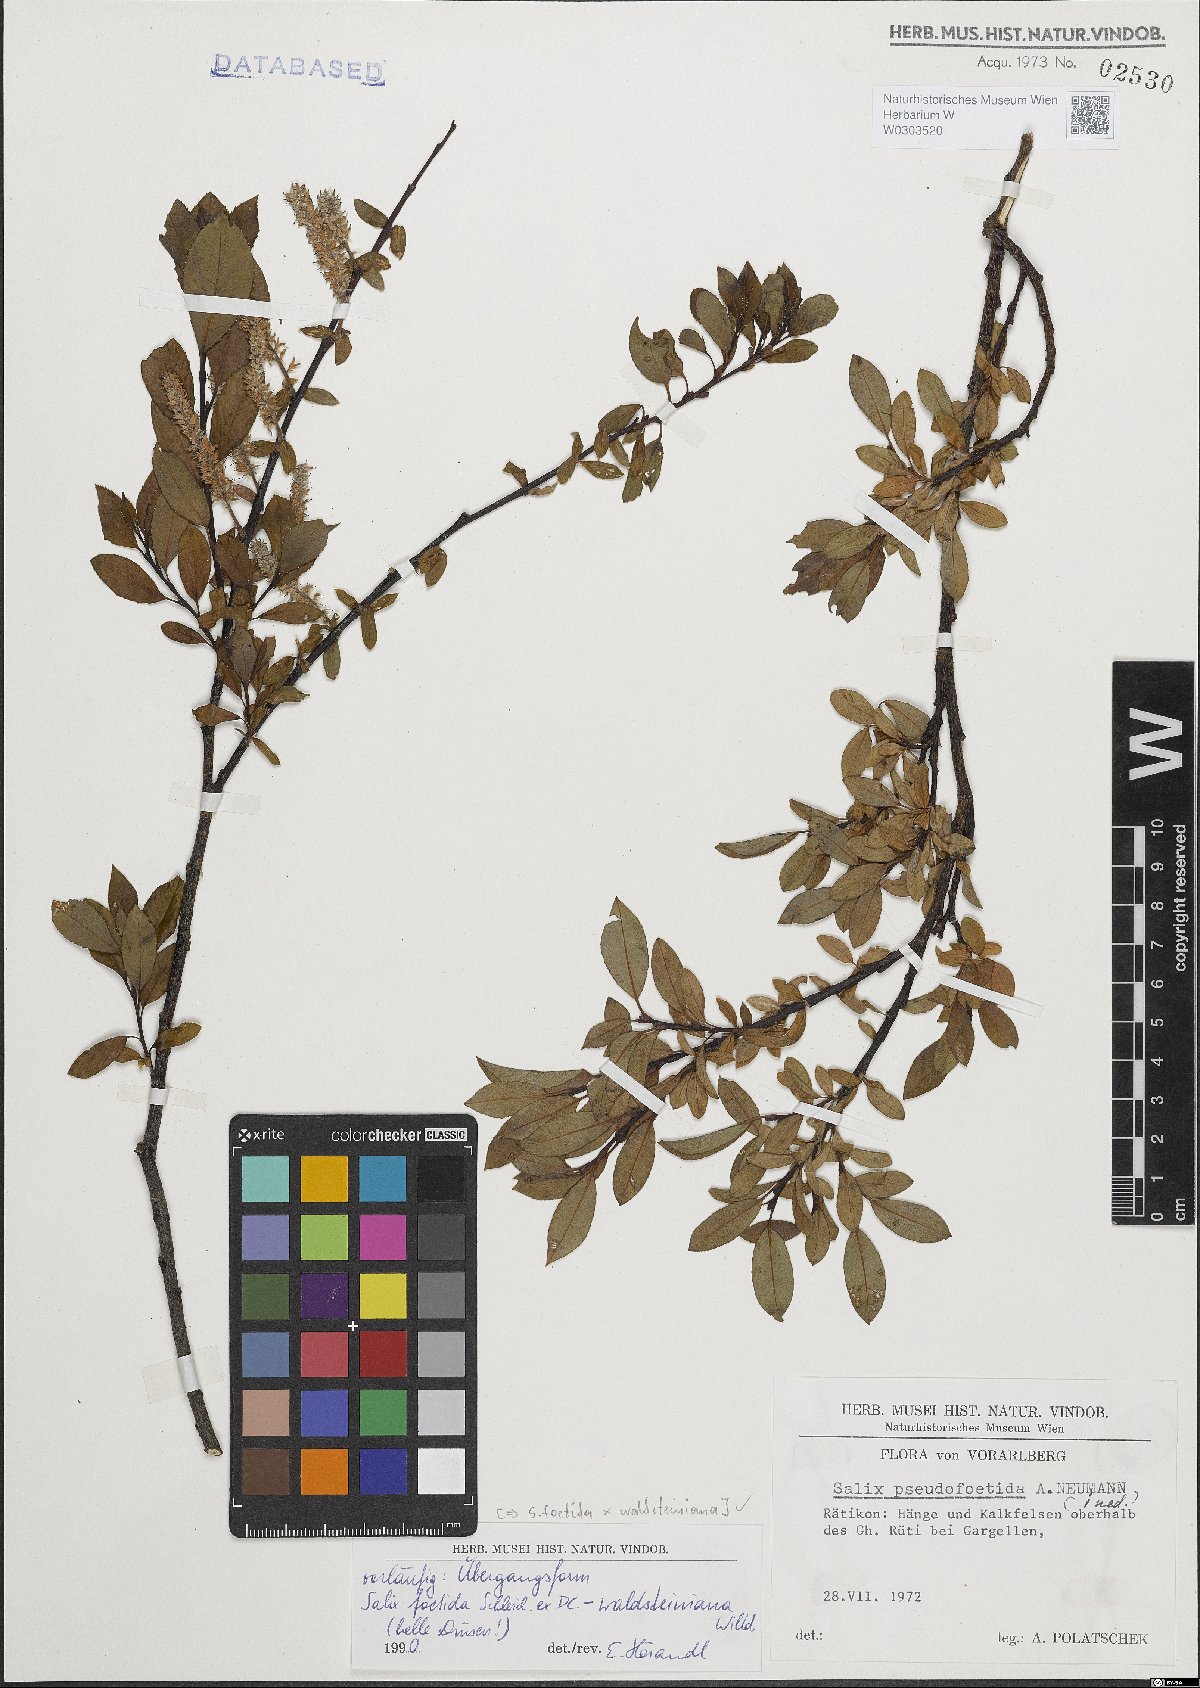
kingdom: Plantae
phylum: Tracheophyta
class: Magnoliopsida
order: Malpighiales
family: Salicaceae
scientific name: Salicaceae
